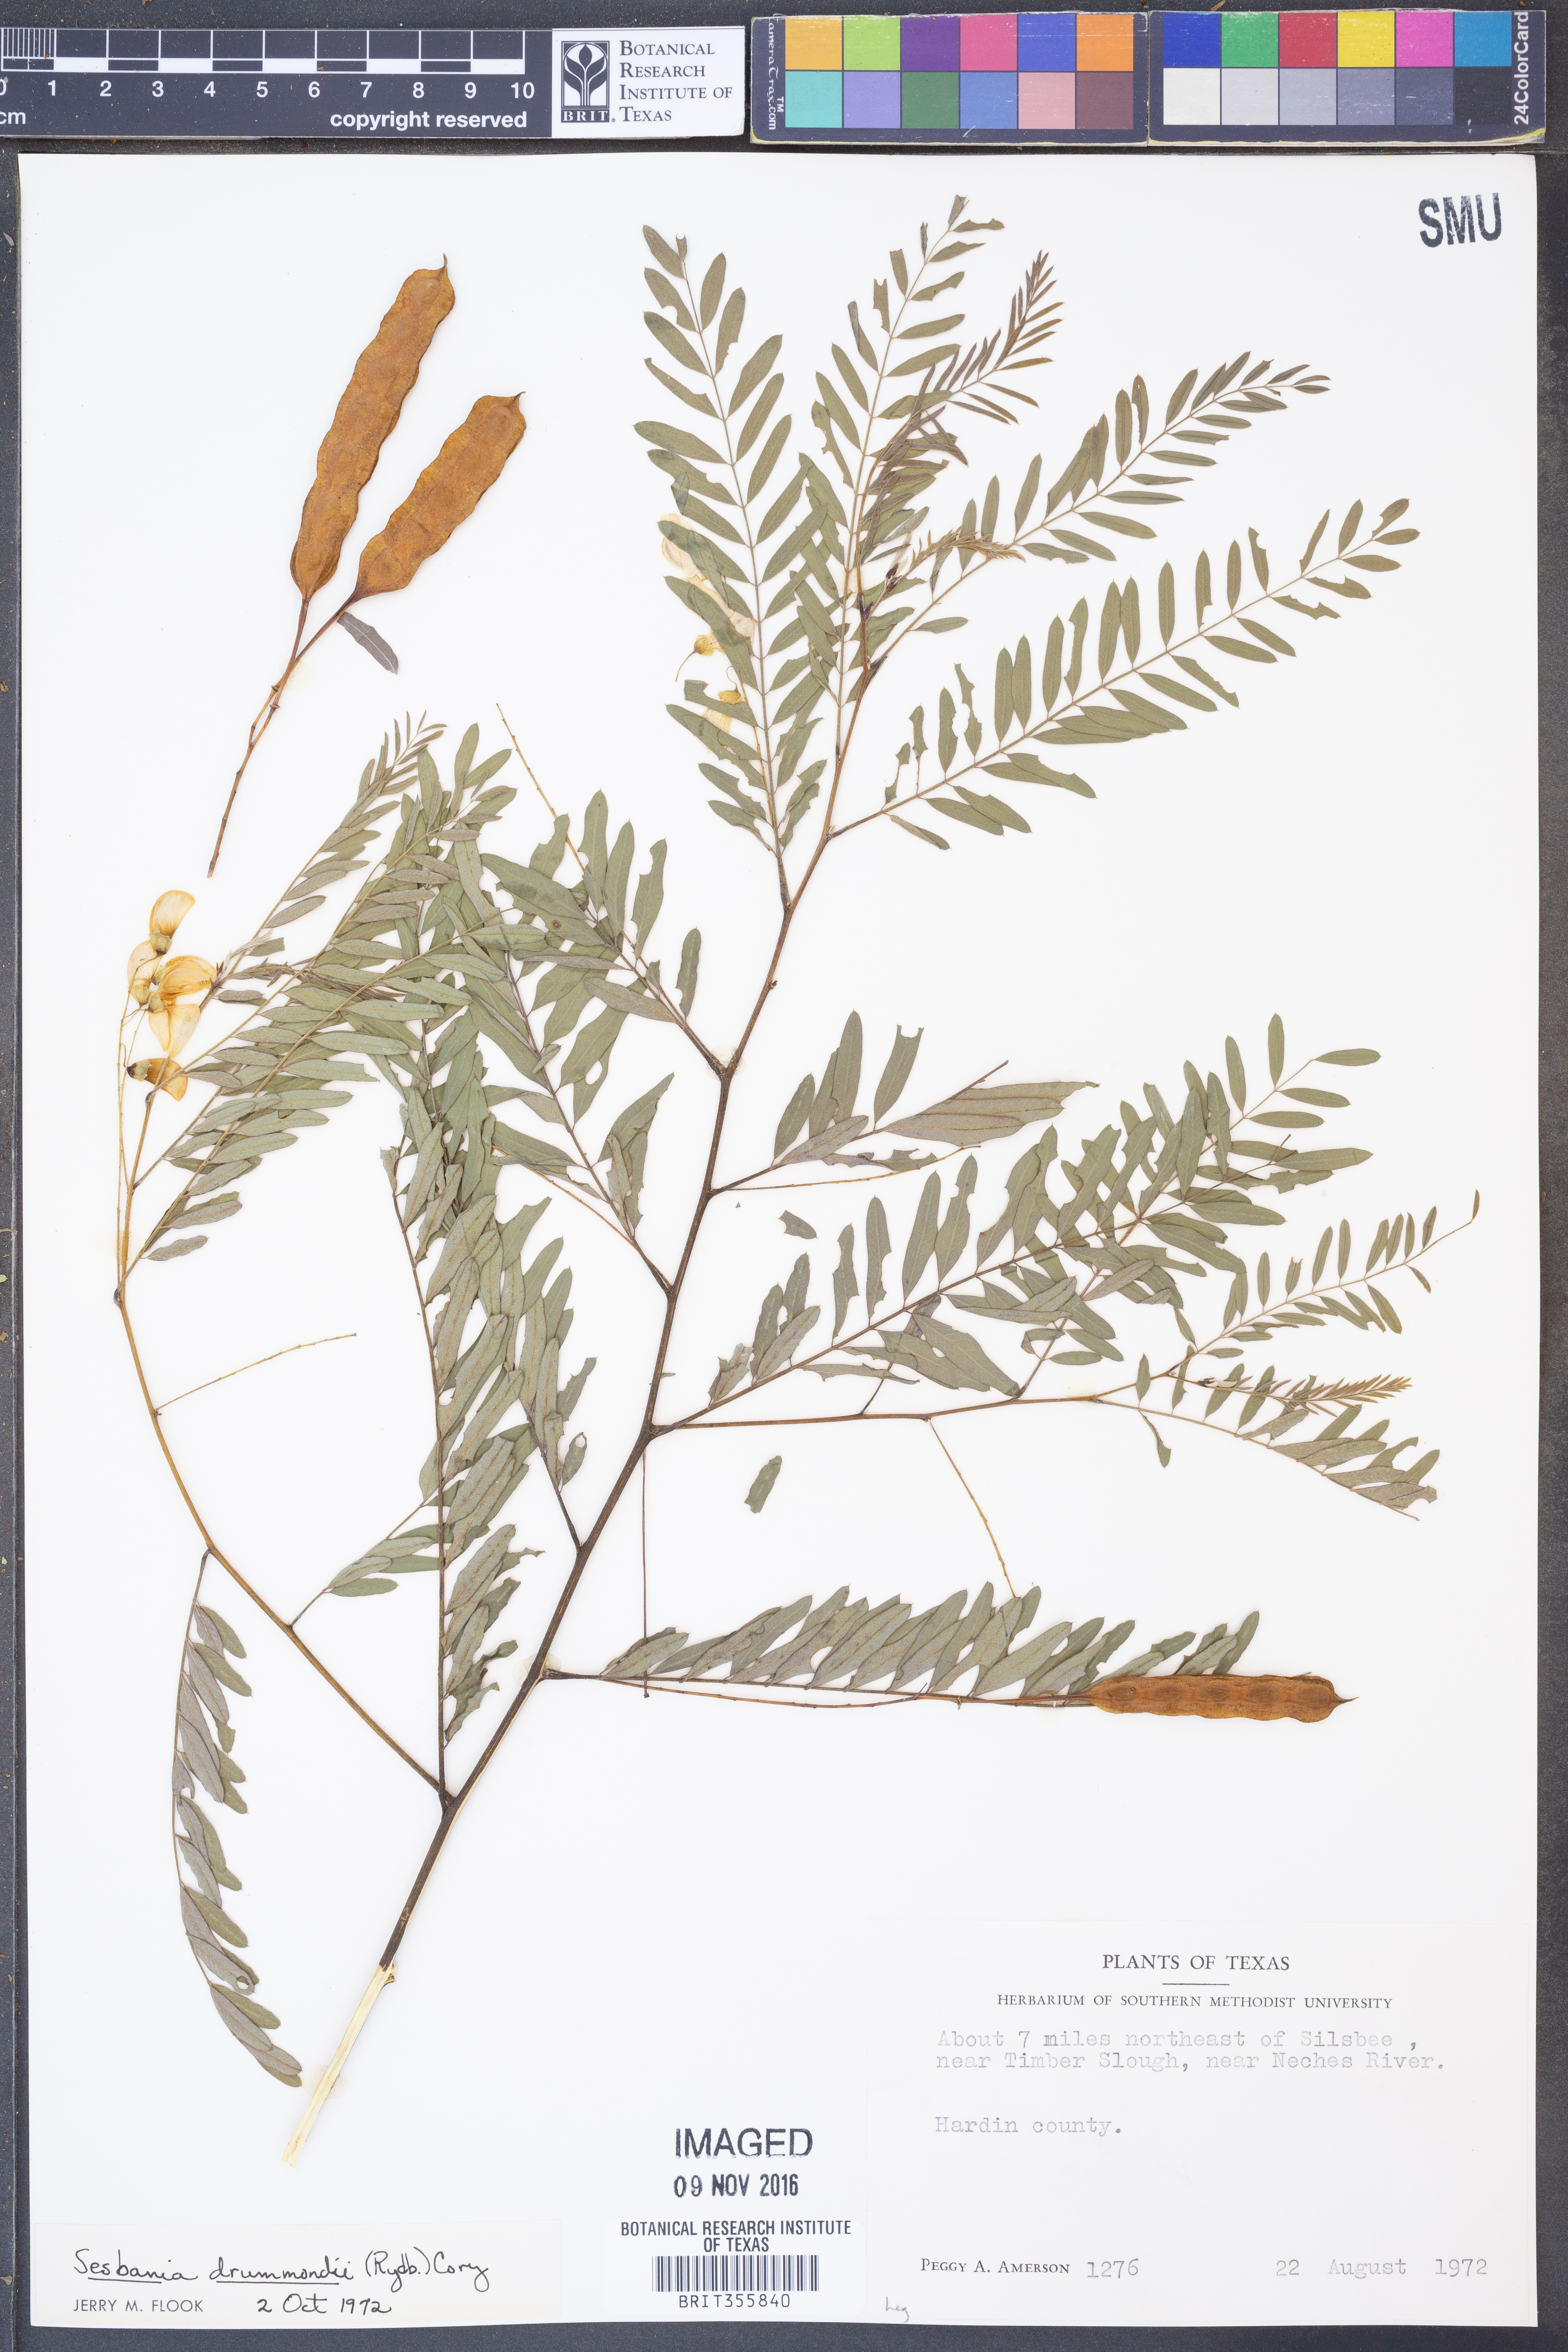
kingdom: Plantae
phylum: Tracheophyta
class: Magnoliopsida
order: Fabales
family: Fabaceae
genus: Sesbania
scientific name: Sesbania drummondii
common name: Poison-bean
